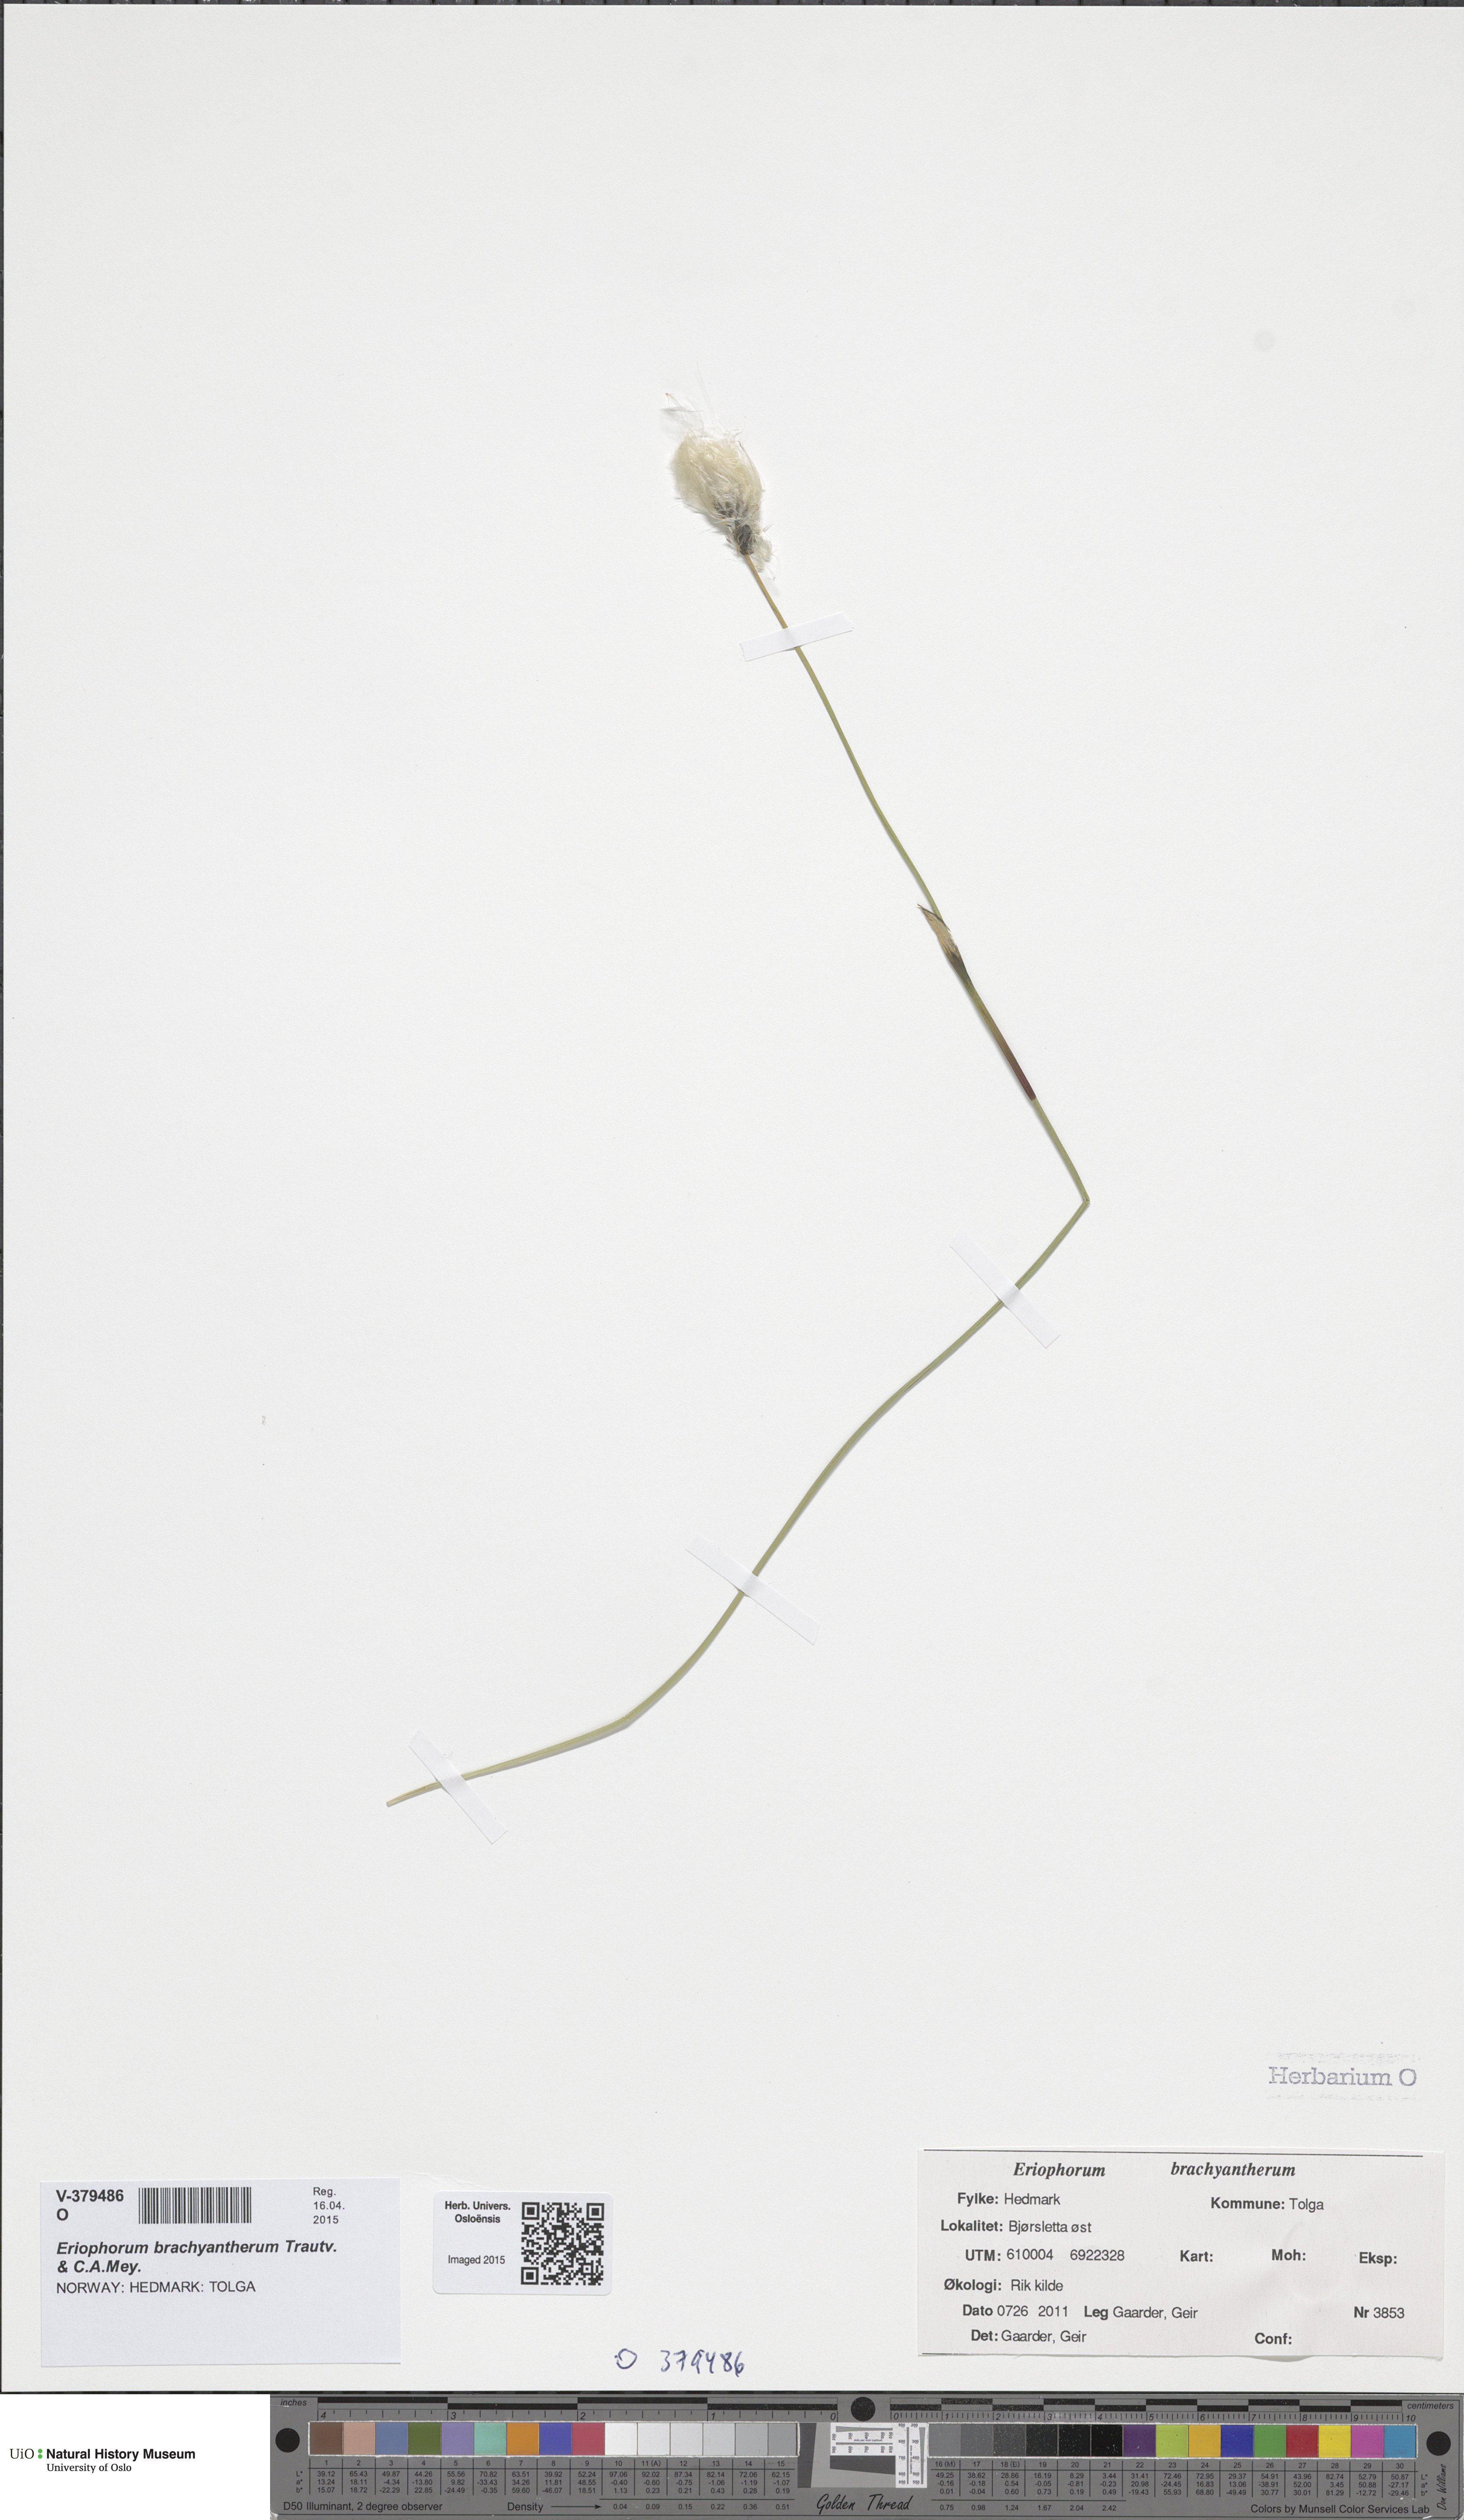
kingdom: Plantae
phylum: Tracheophyta
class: Liliopsida
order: Poales
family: Cyperaceae
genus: Eriophorum
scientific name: Eriophorum vaginatum
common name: Hare's-tail cottongrass
